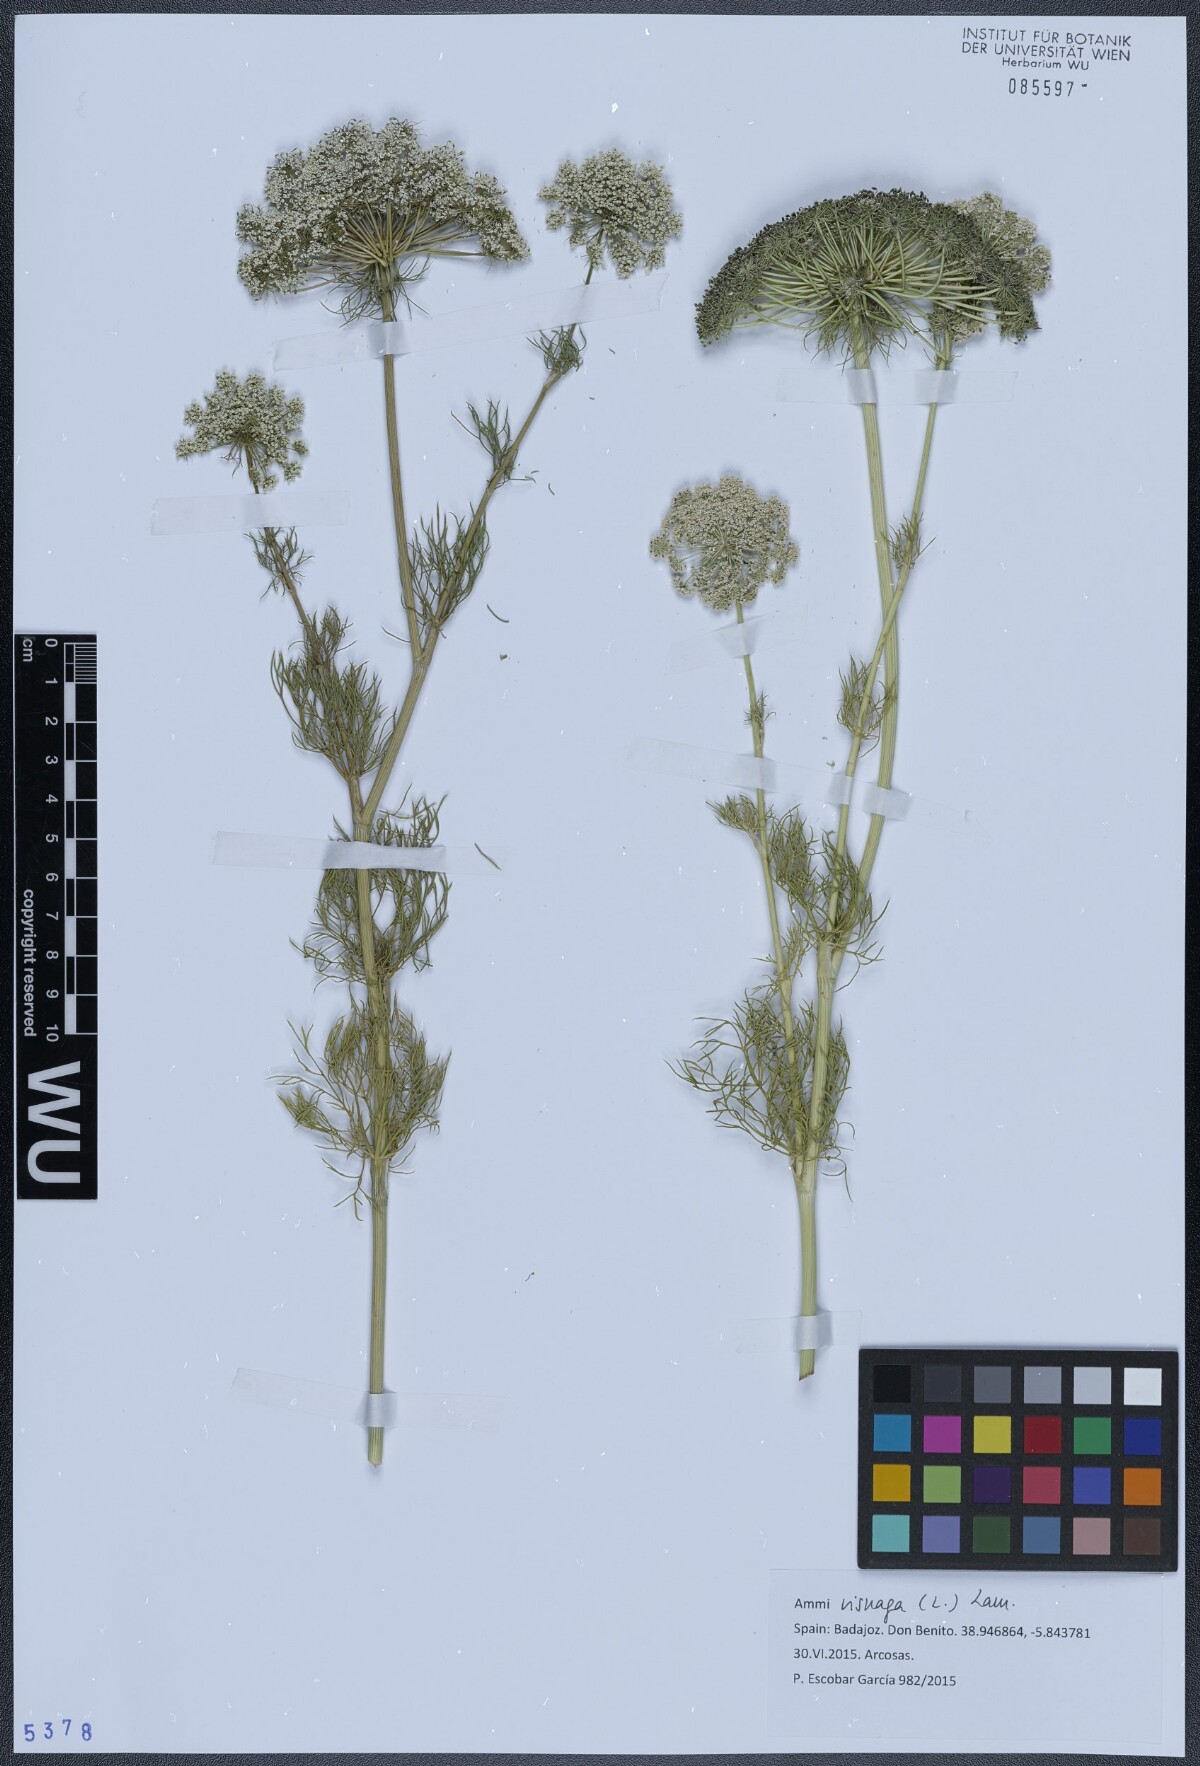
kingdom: Plantae
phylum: Tracheophyta
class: Magnoliopsida
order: Apiales
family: Apiaceae
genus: Visnaga
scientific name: Visnaga daucoides
